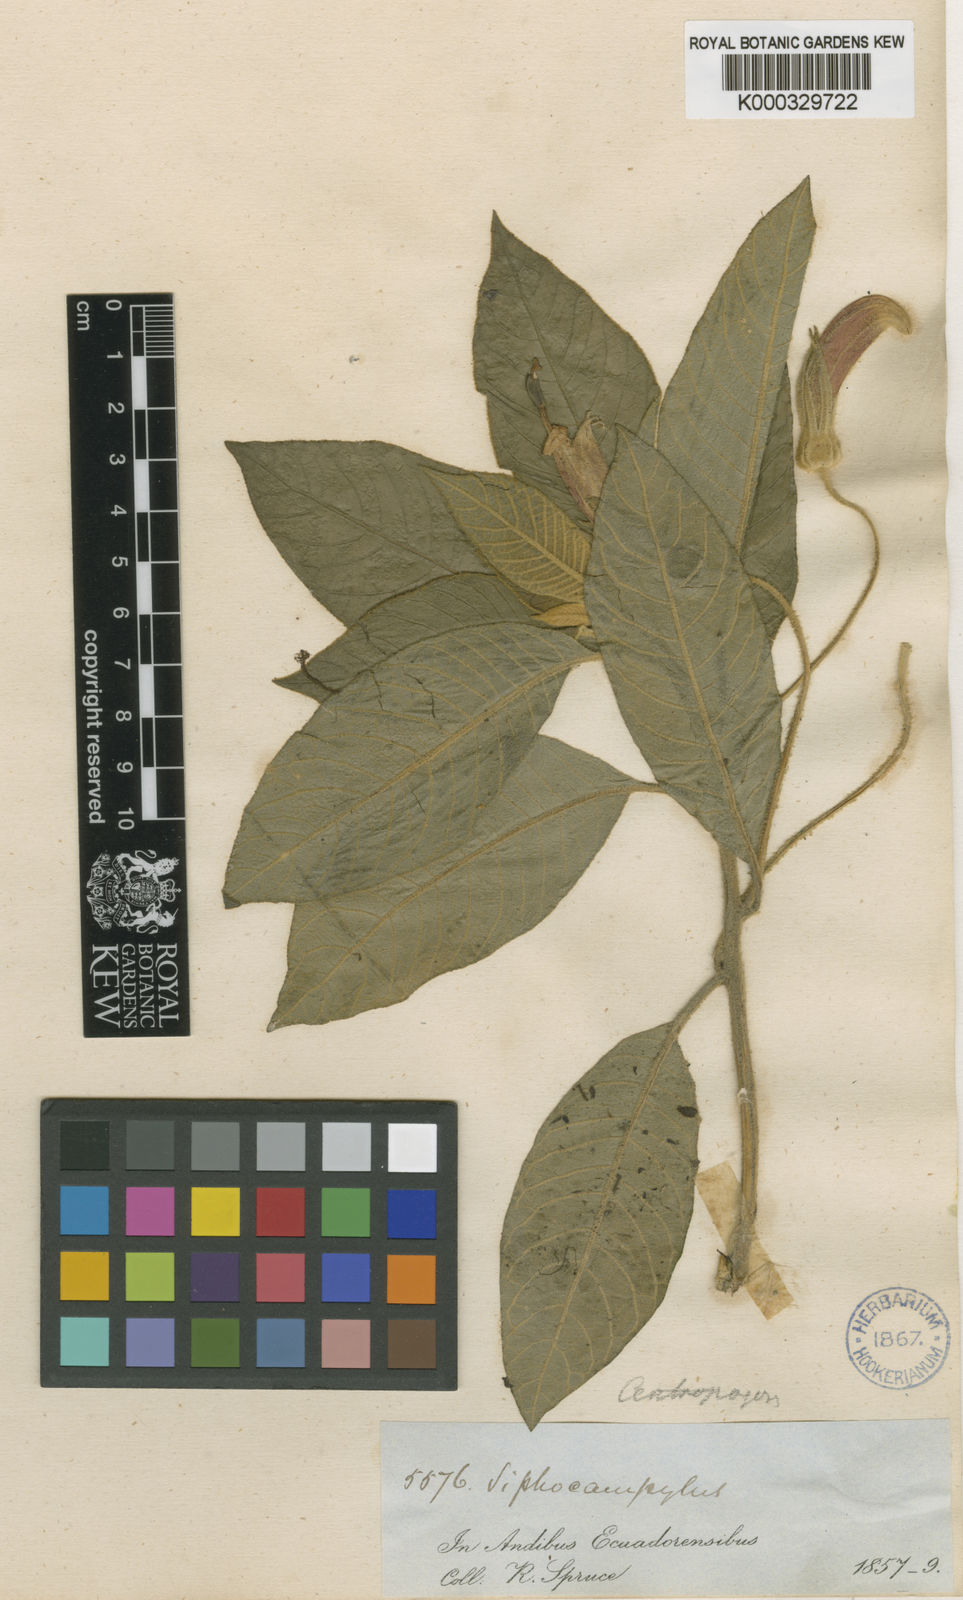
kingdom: Plantae
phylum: Tracheophyta
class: Magnoliopsida
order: Asterales
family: Campanulaceae
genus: Centropogon
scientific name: Centropogon luteus
